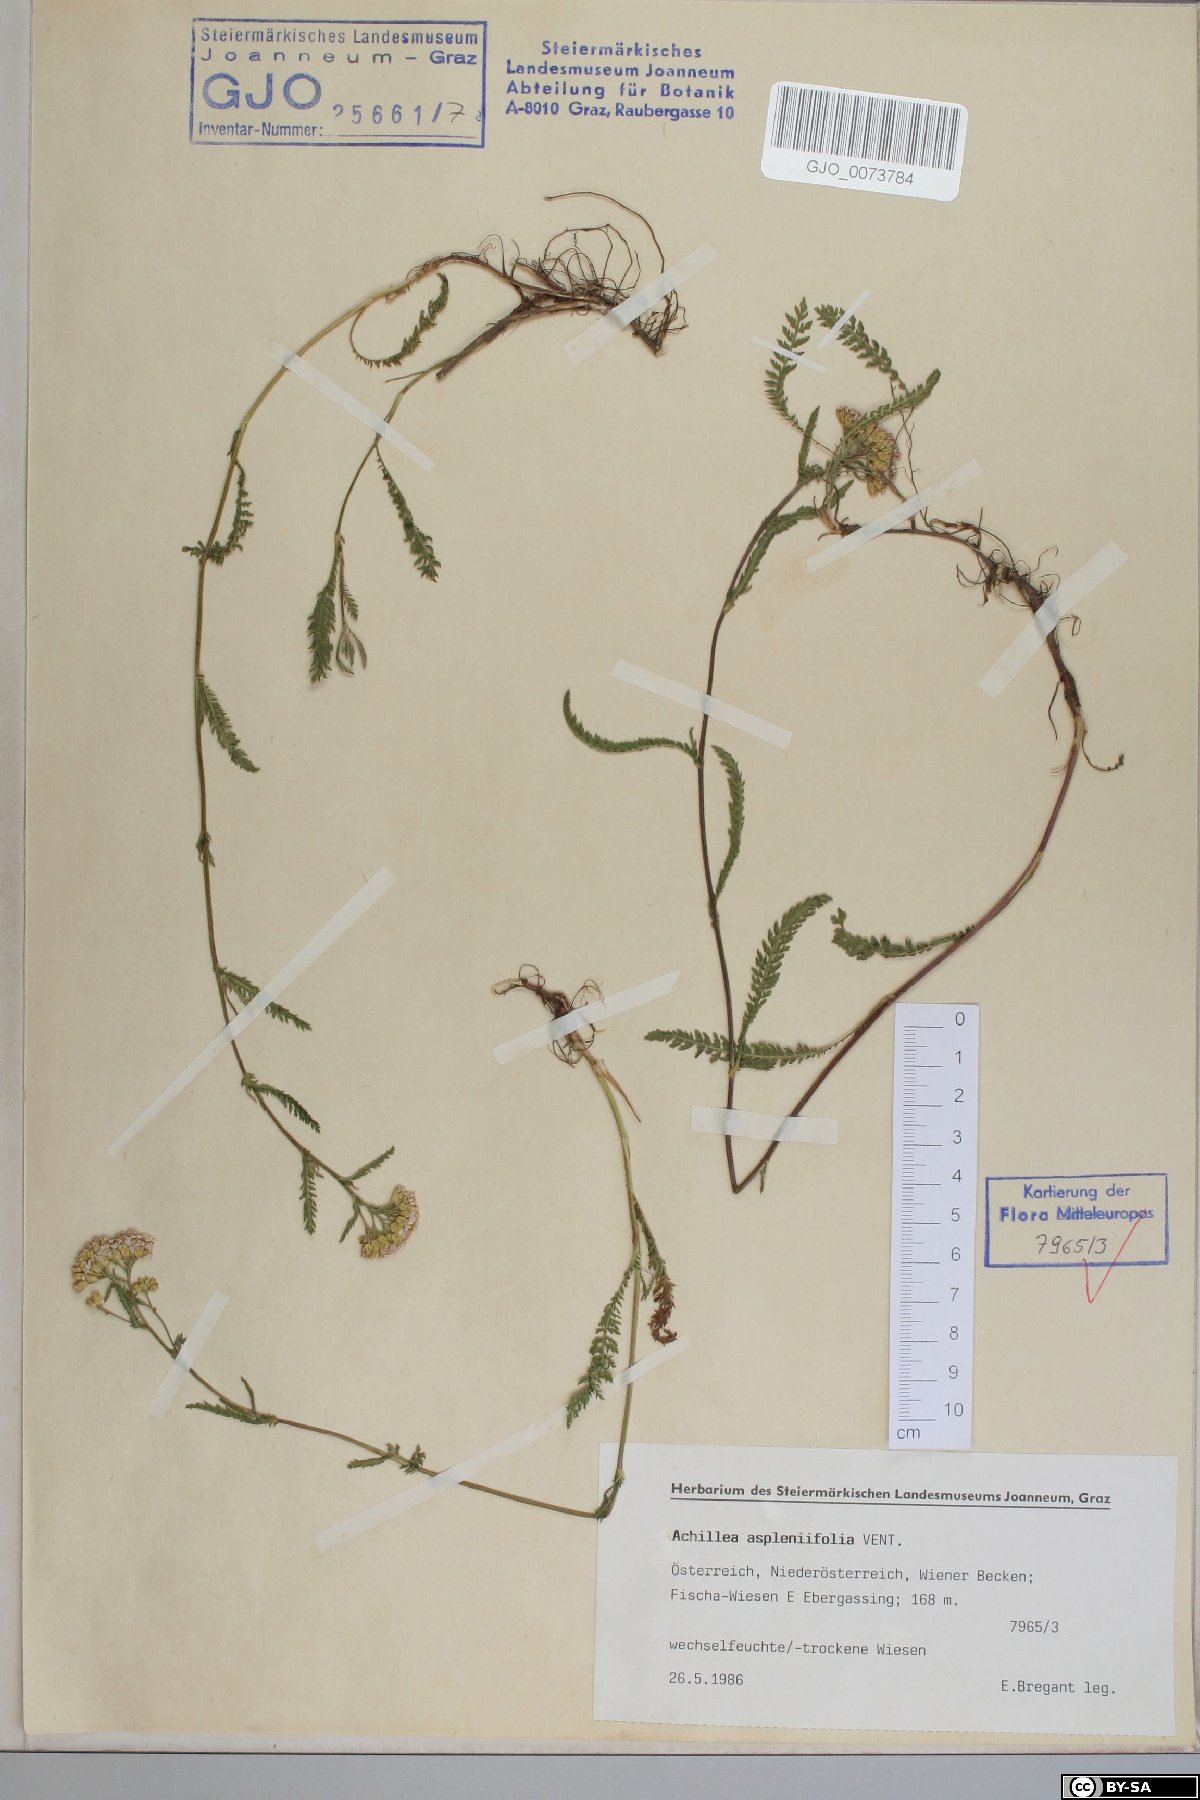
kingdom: Plantae
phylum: Tracheophyta
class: Magnoliopsida
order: Asterales
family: Asteraceae
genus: Achillea
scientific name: Achillea aspleniifolia
